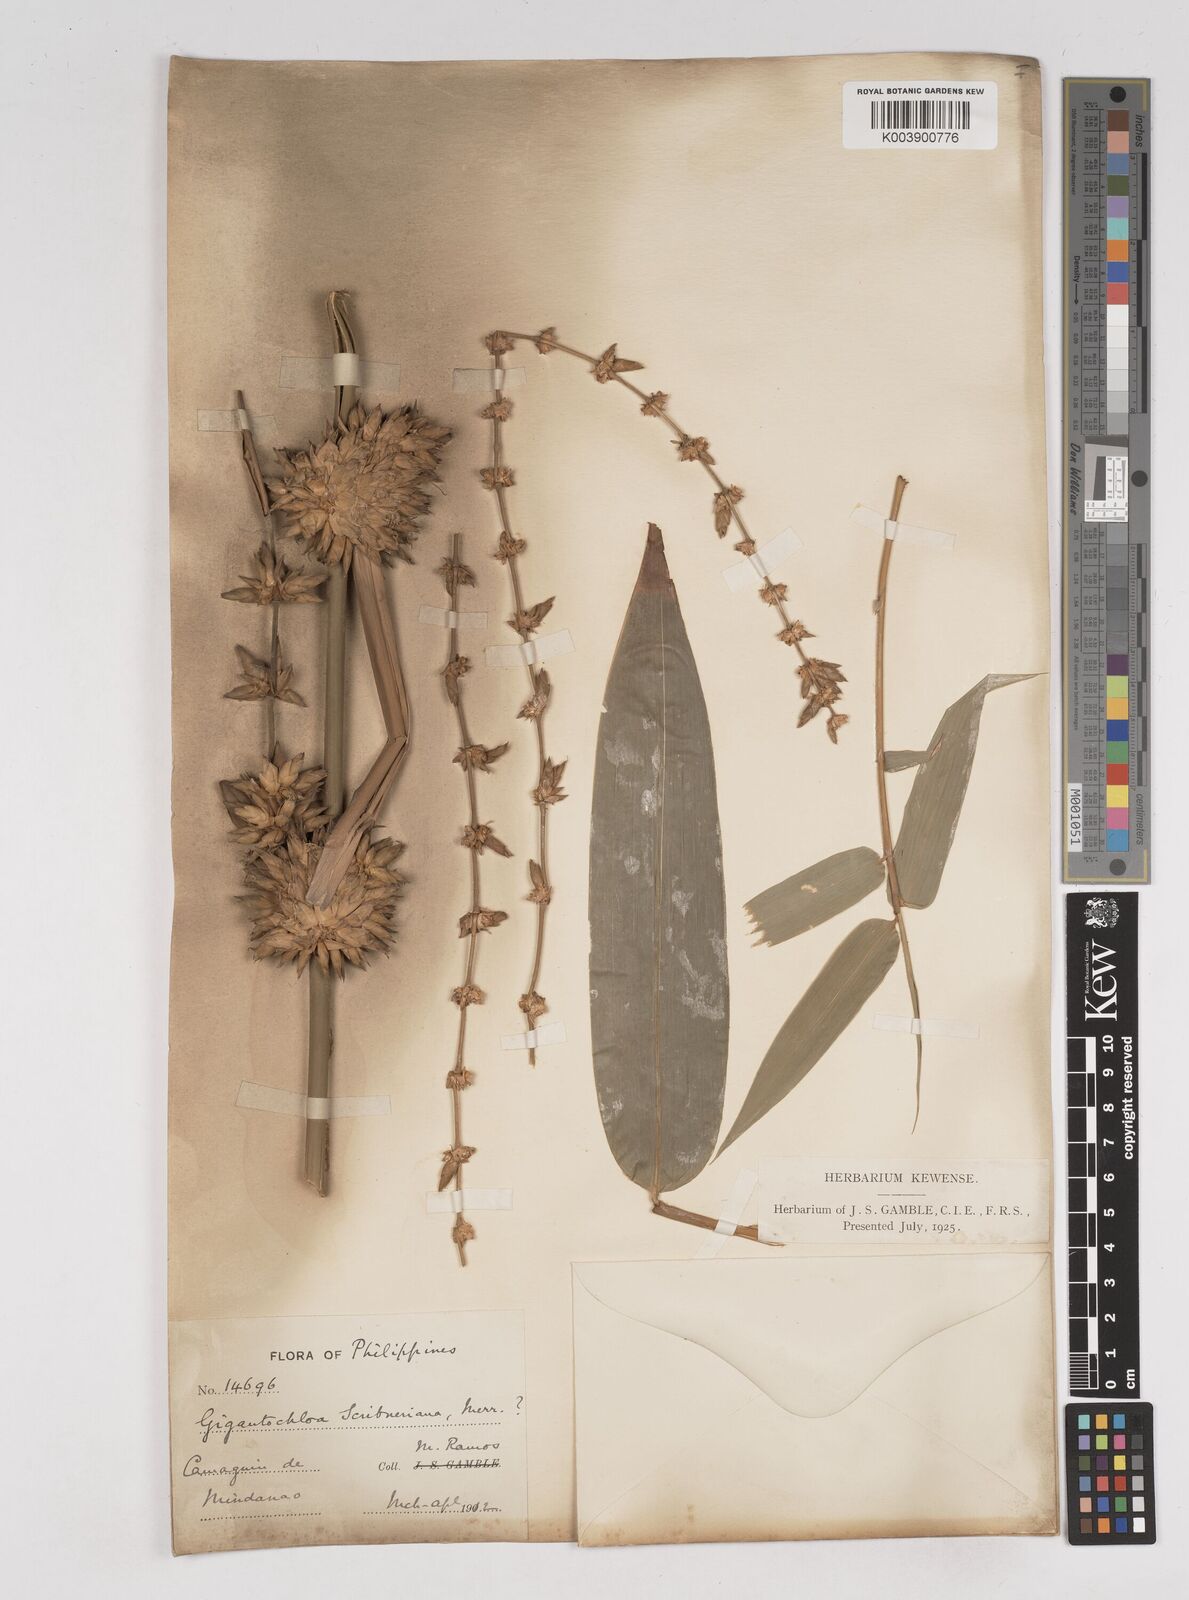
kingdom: Plantae
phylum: Tracheophyta
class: Liliopsida
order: Poales
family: Poaceae
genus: Gigantochloa
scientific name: Gigantochloa levis
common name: Smooth-shoot gigantochloa
